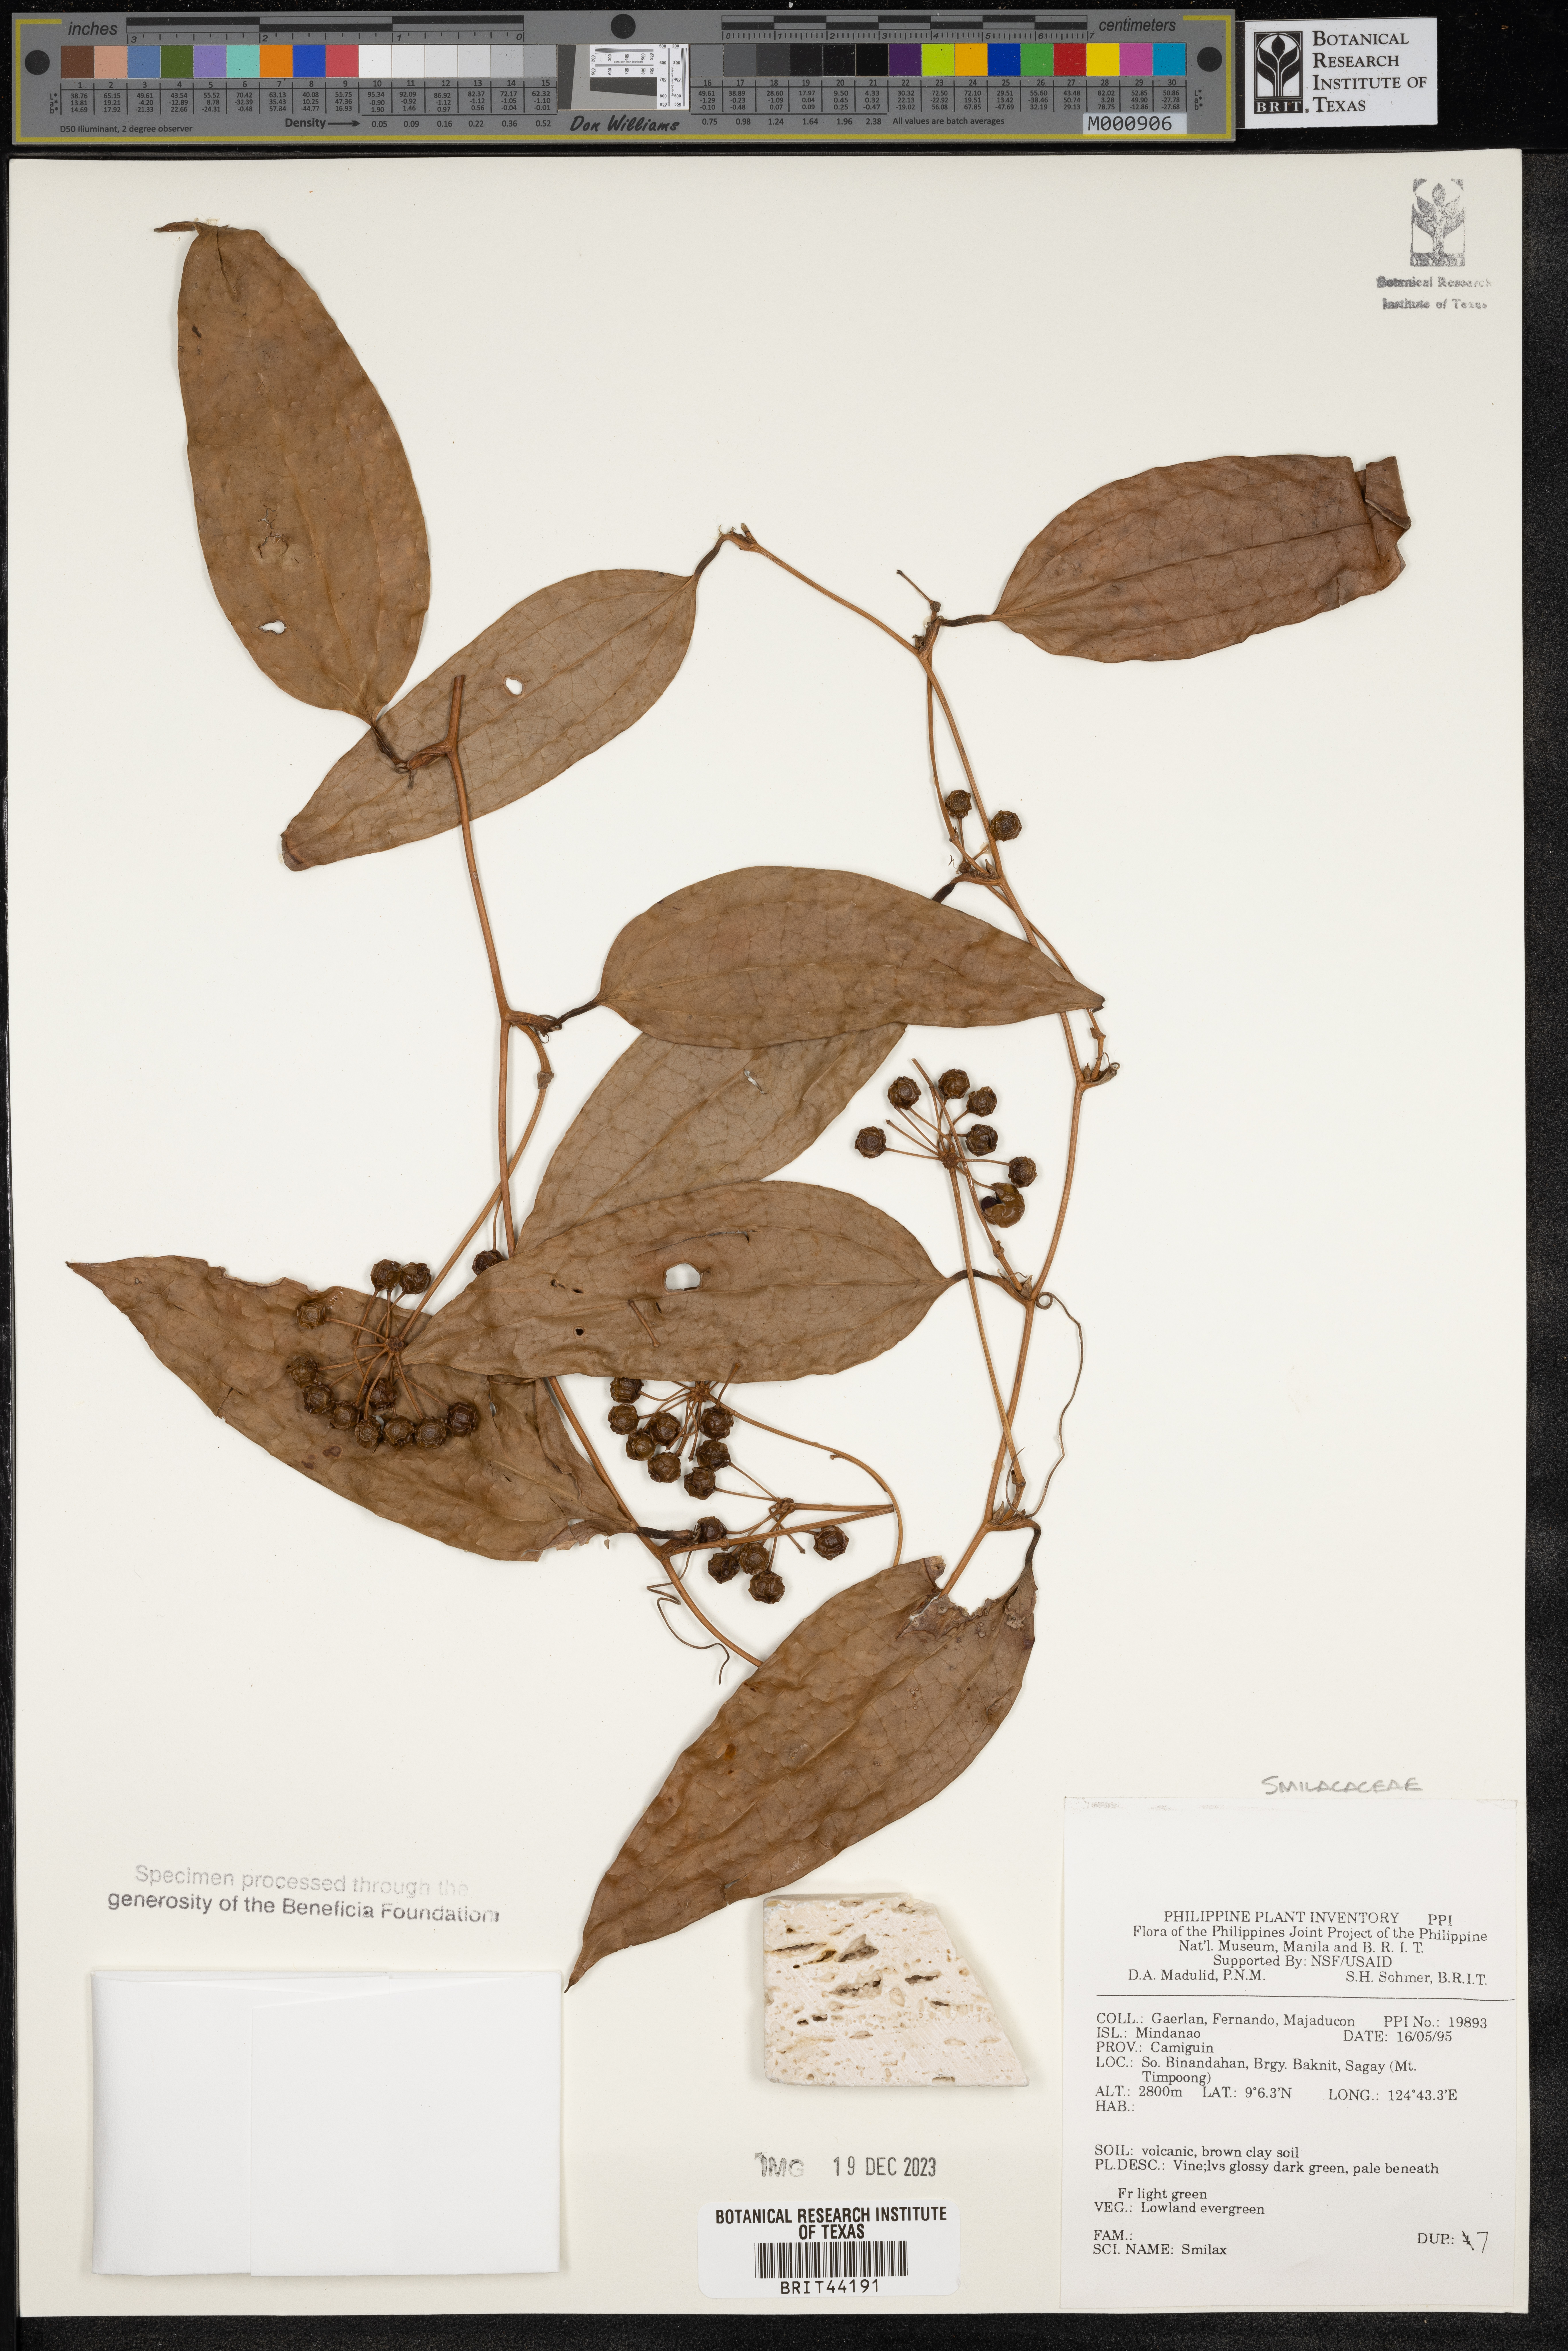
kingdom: Plantae
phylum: Tracheophyta
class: Liliopsida
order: Liliales
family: Smilacaceae
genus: Smilax
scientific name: Smilax
